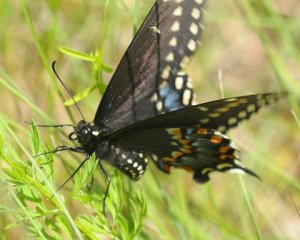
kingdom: Animalia
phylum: Arthropoda
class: Insecta
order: Lepidoptera
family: Papilionidae
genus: Papilio
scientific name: Papilio polyxenes
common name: Black Swallowtail
